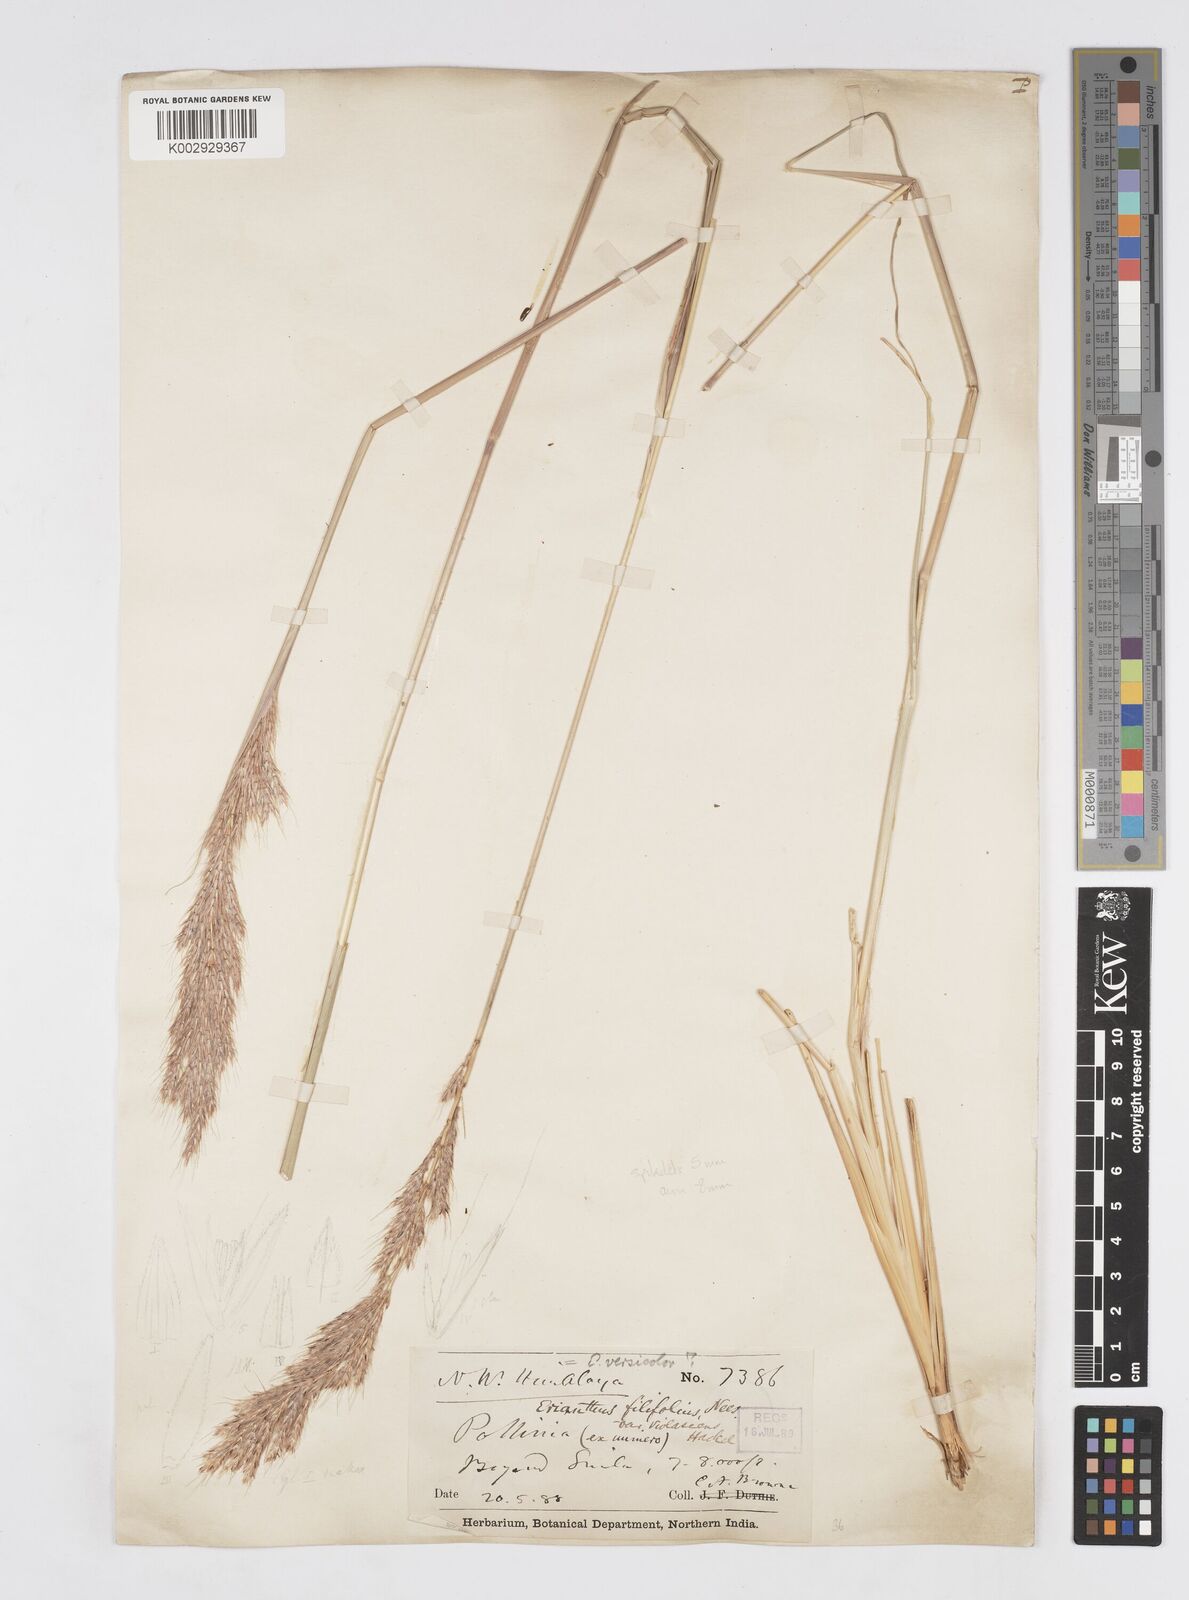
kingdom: Plantae
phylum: Tracheophyta
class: Liliopsida
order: Poales
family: Poaceae
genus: Saccharum
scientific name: Saccharum filifolium
